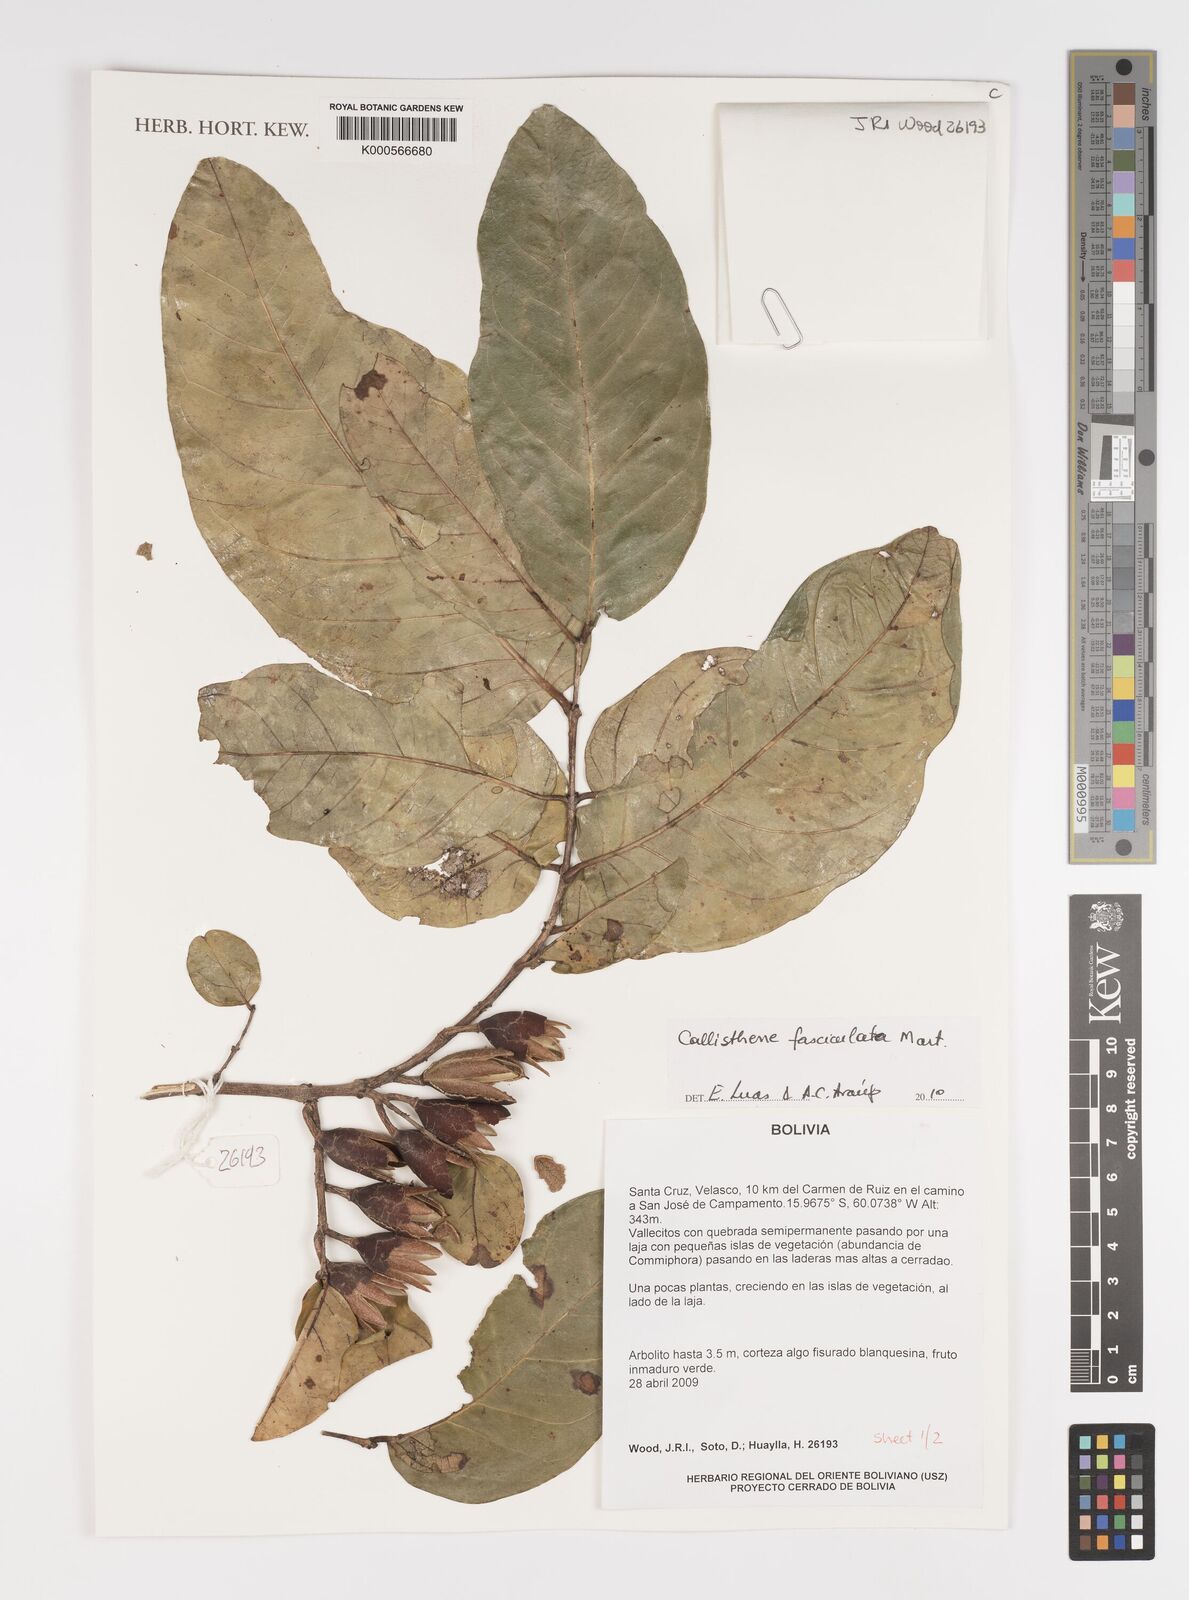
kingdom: Plantae
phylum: Tracheophyta
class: Magnoliopsida
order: Myrtales
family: Vochysiaceae
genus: Callisthene
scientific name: Callisthene fasciculata
